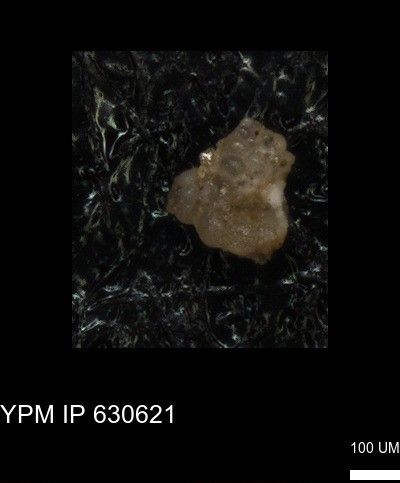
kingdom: Chromista
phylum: Foraminifera
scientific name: Foraminifera
